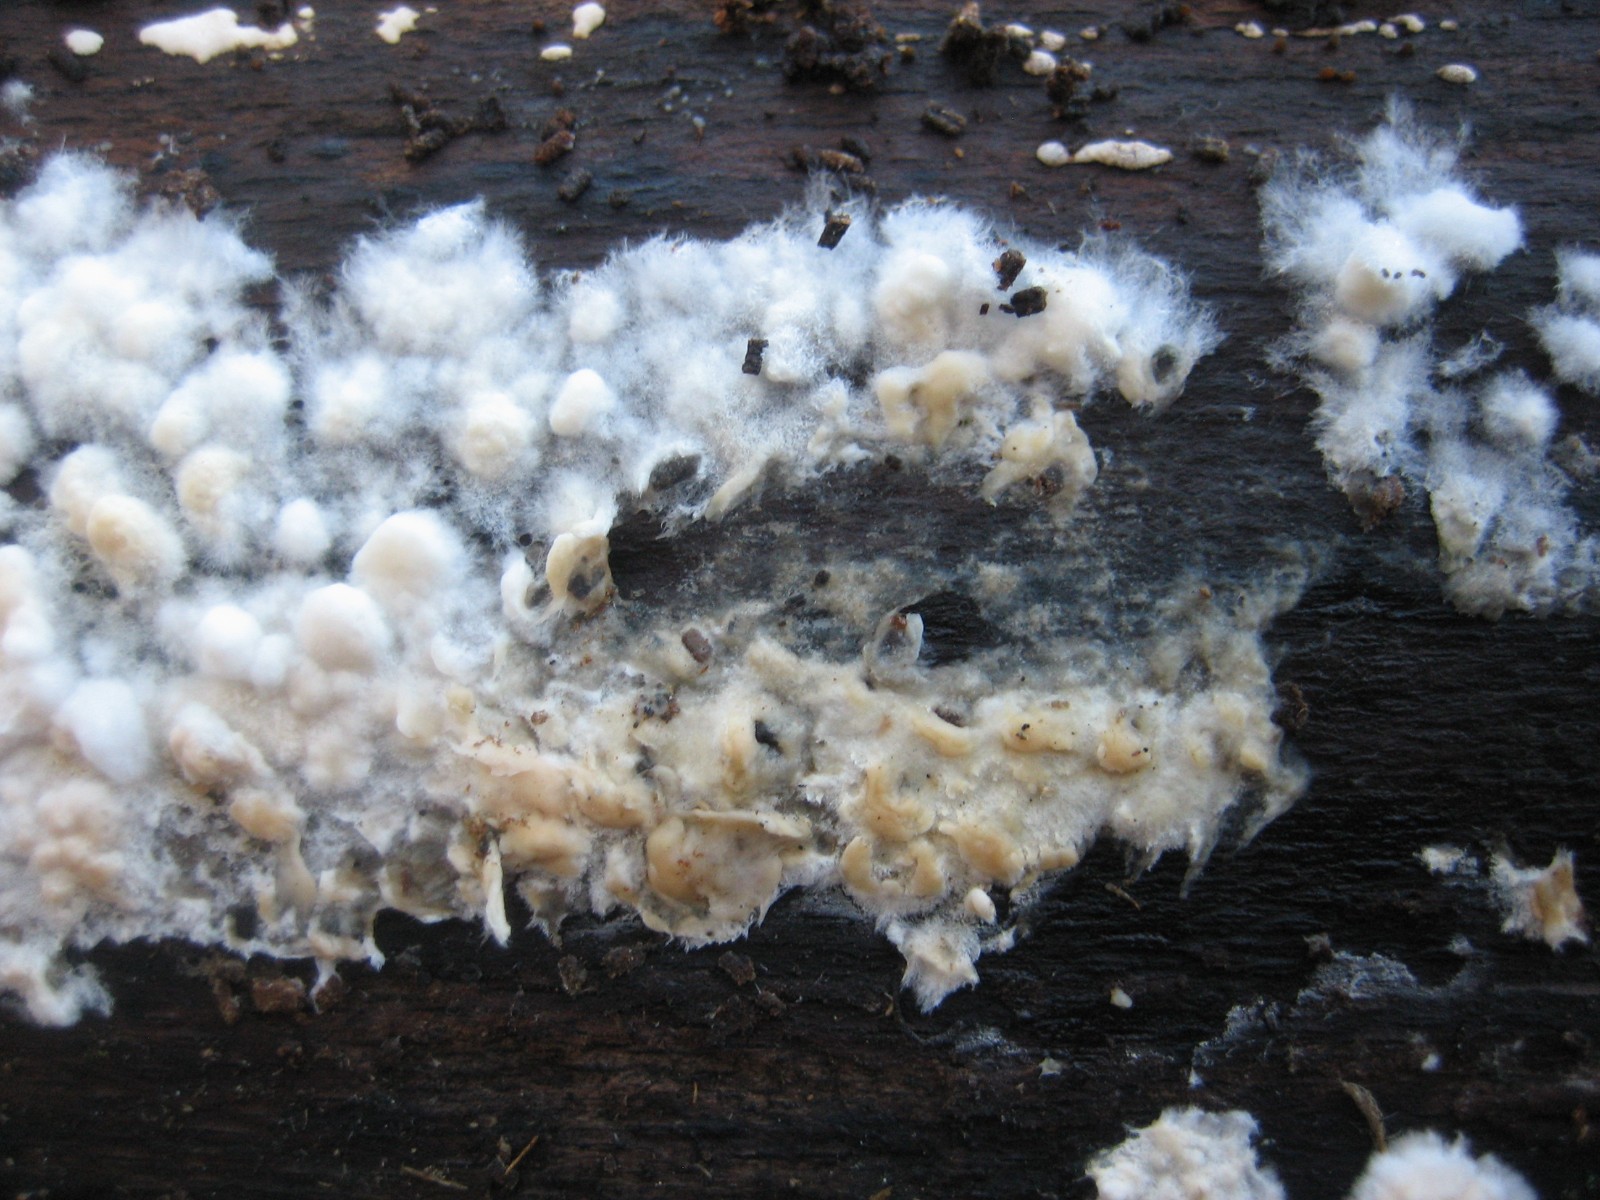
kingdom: Fungi
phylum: Basidiomycota
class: Agaricomycetes
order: Corticiales
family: Corticiaceae
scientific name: Corticiaceae
